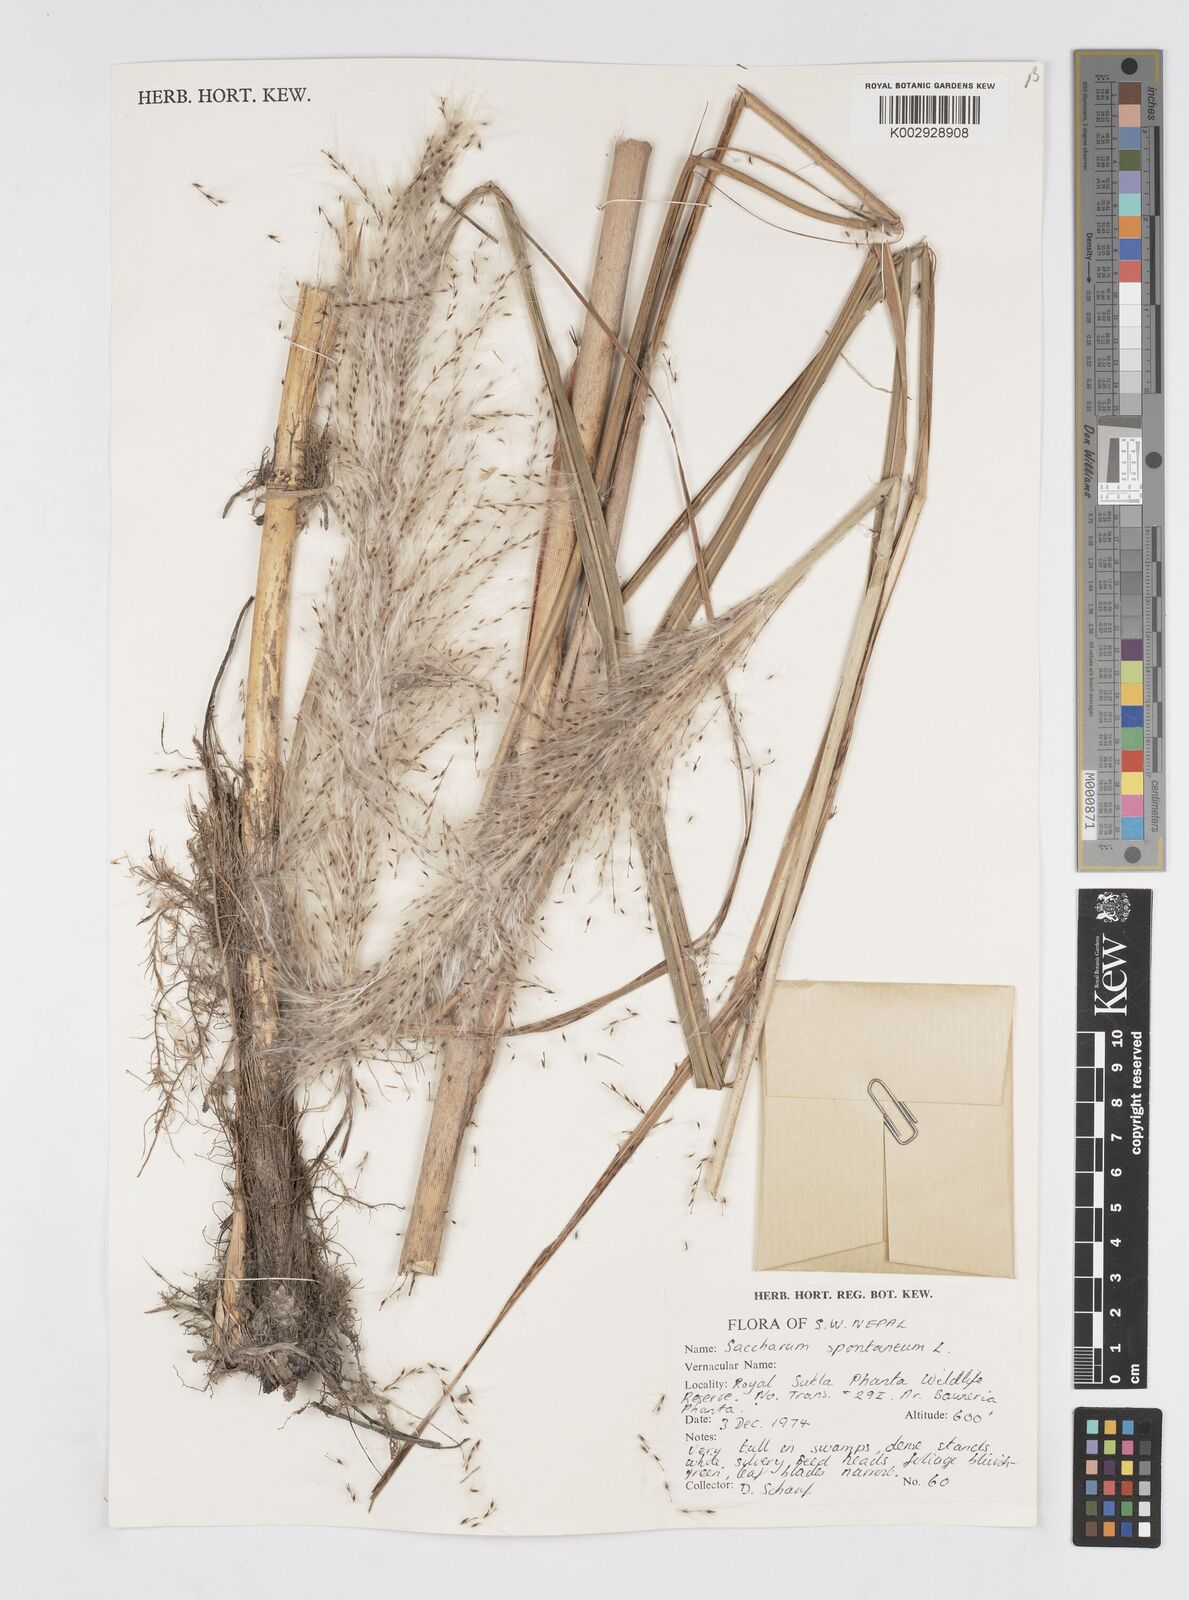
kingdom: Plantae
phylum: Tracheophyta
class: Liliopsida
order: Poales
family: Poaceae
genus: Saccharum
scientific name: Saccharum spontaneum
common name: Wild sugarcane
